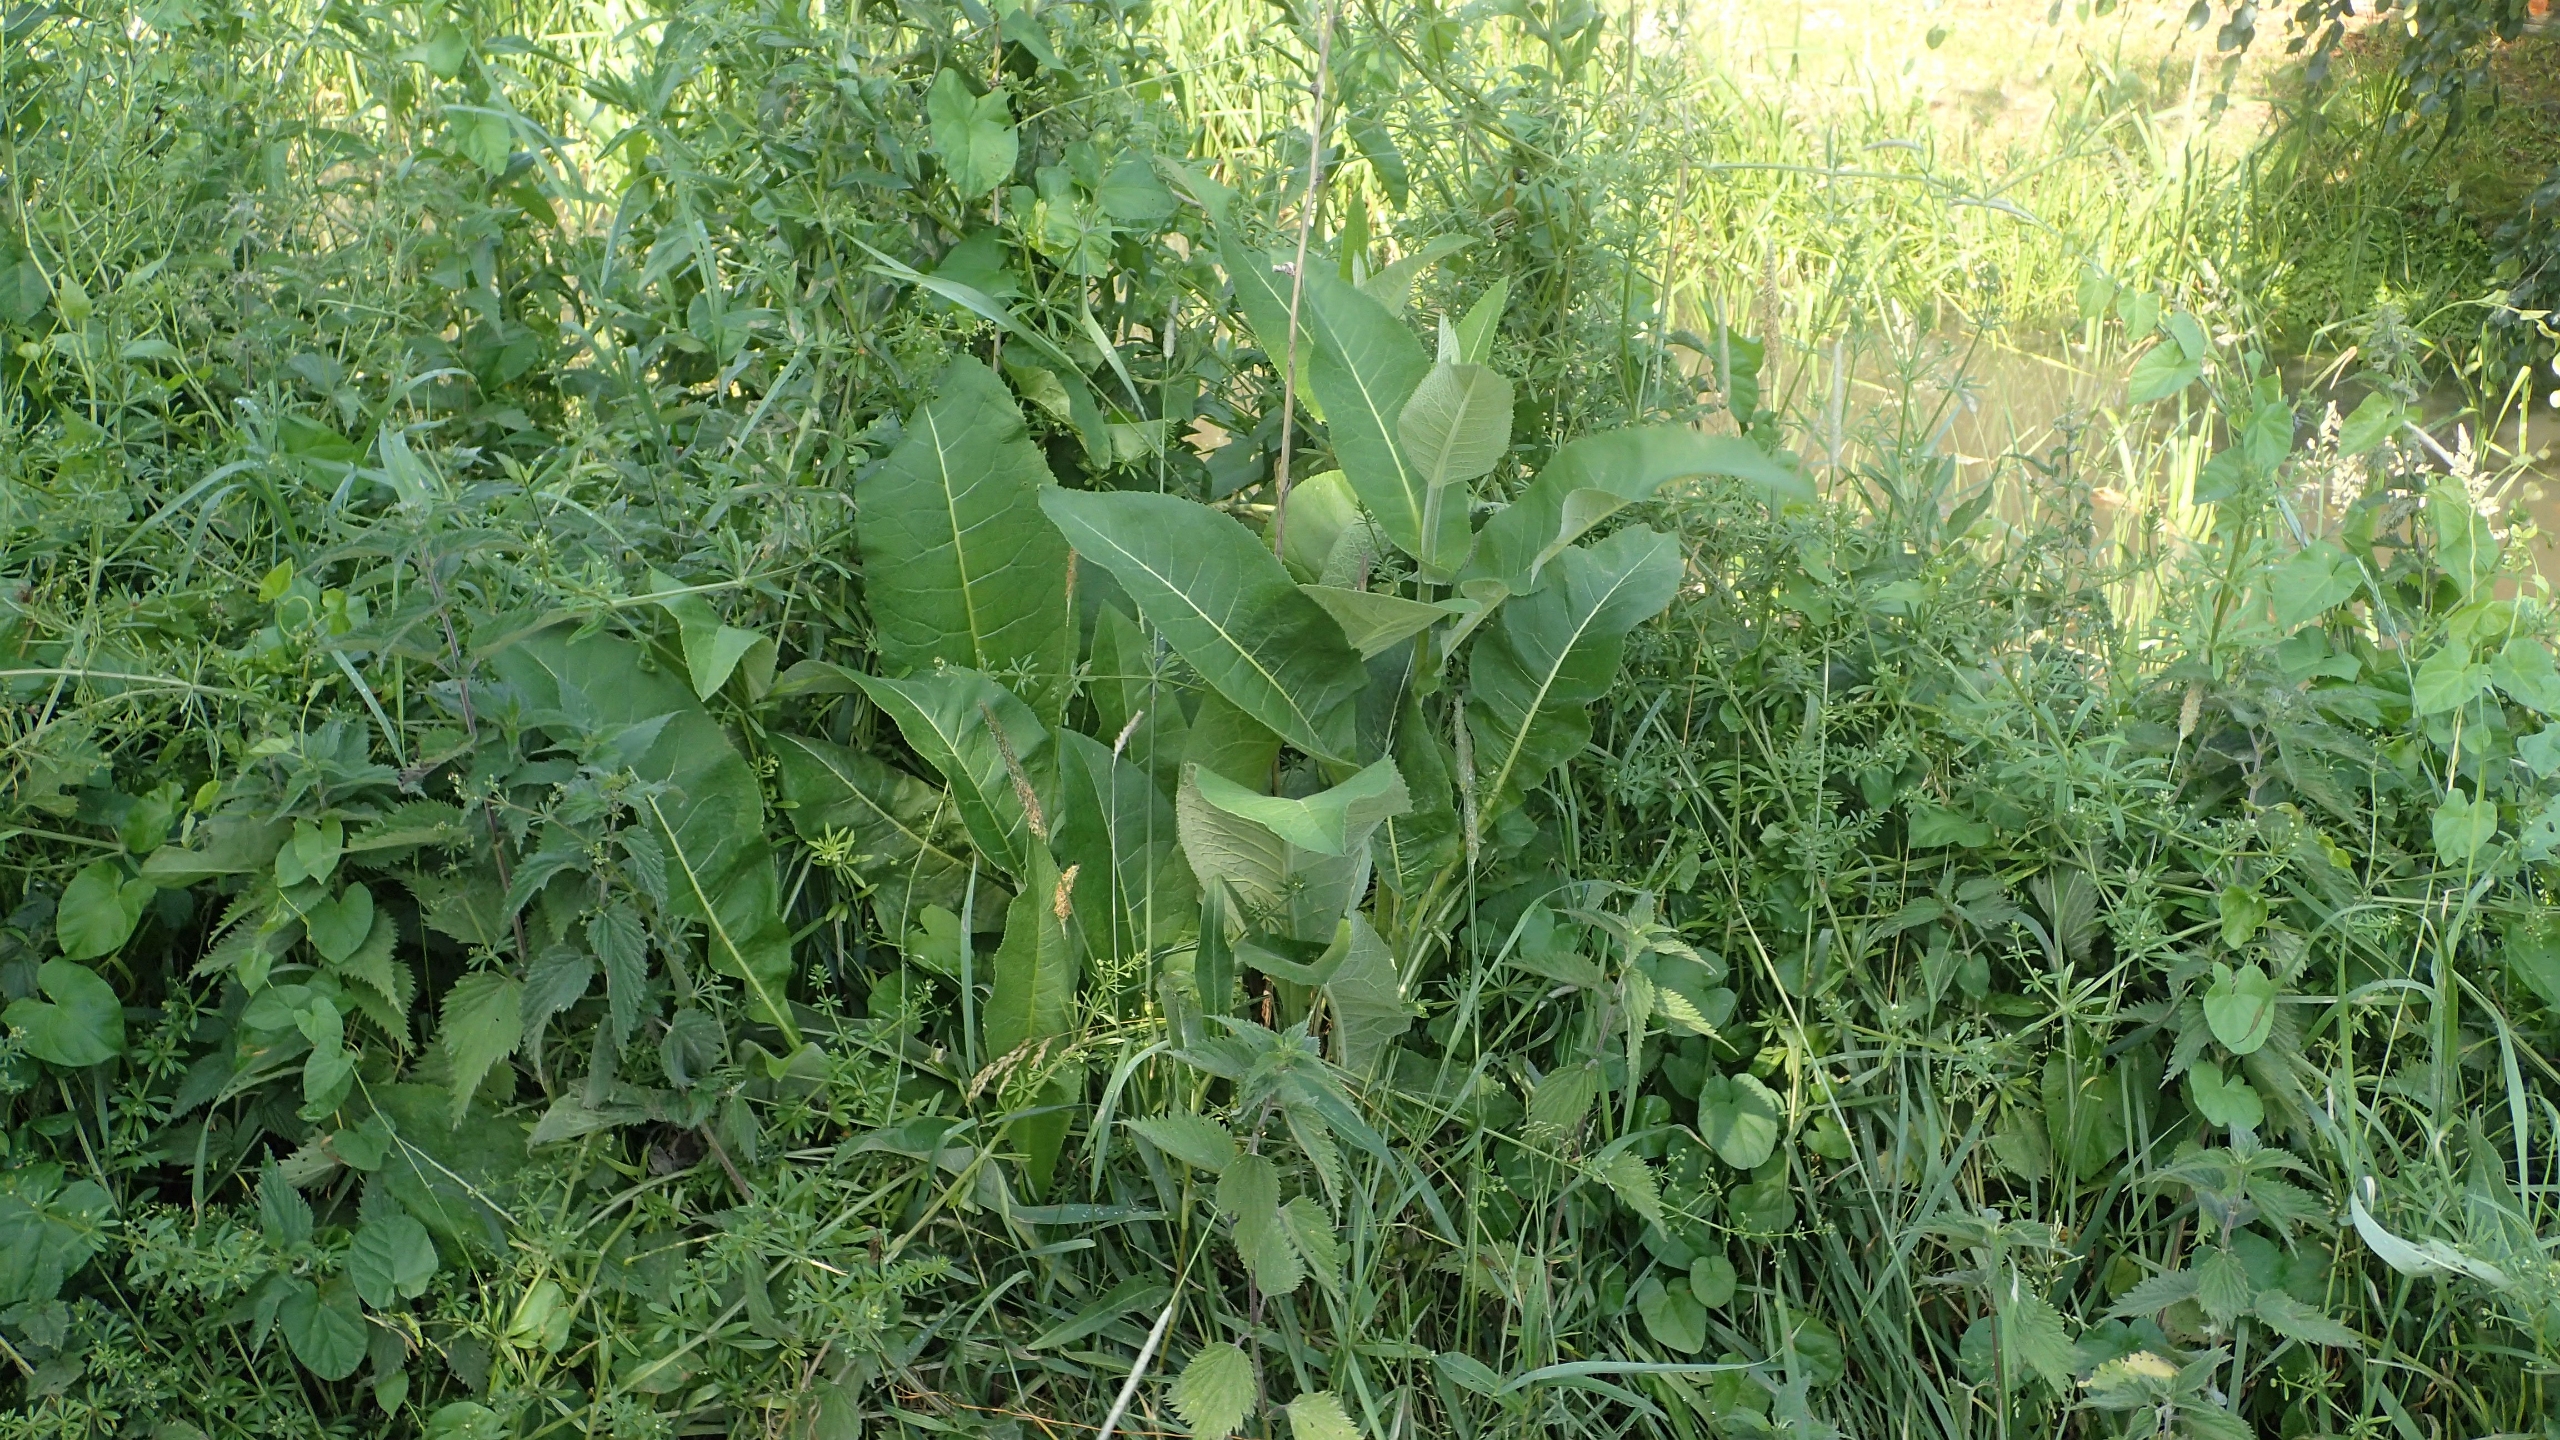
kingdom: Plantae
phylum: Tracheophyta
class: Magnoliopsida
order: Asterales
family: Asteraceae
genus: Inula
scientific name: Inula helenium
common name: Læge-alant
